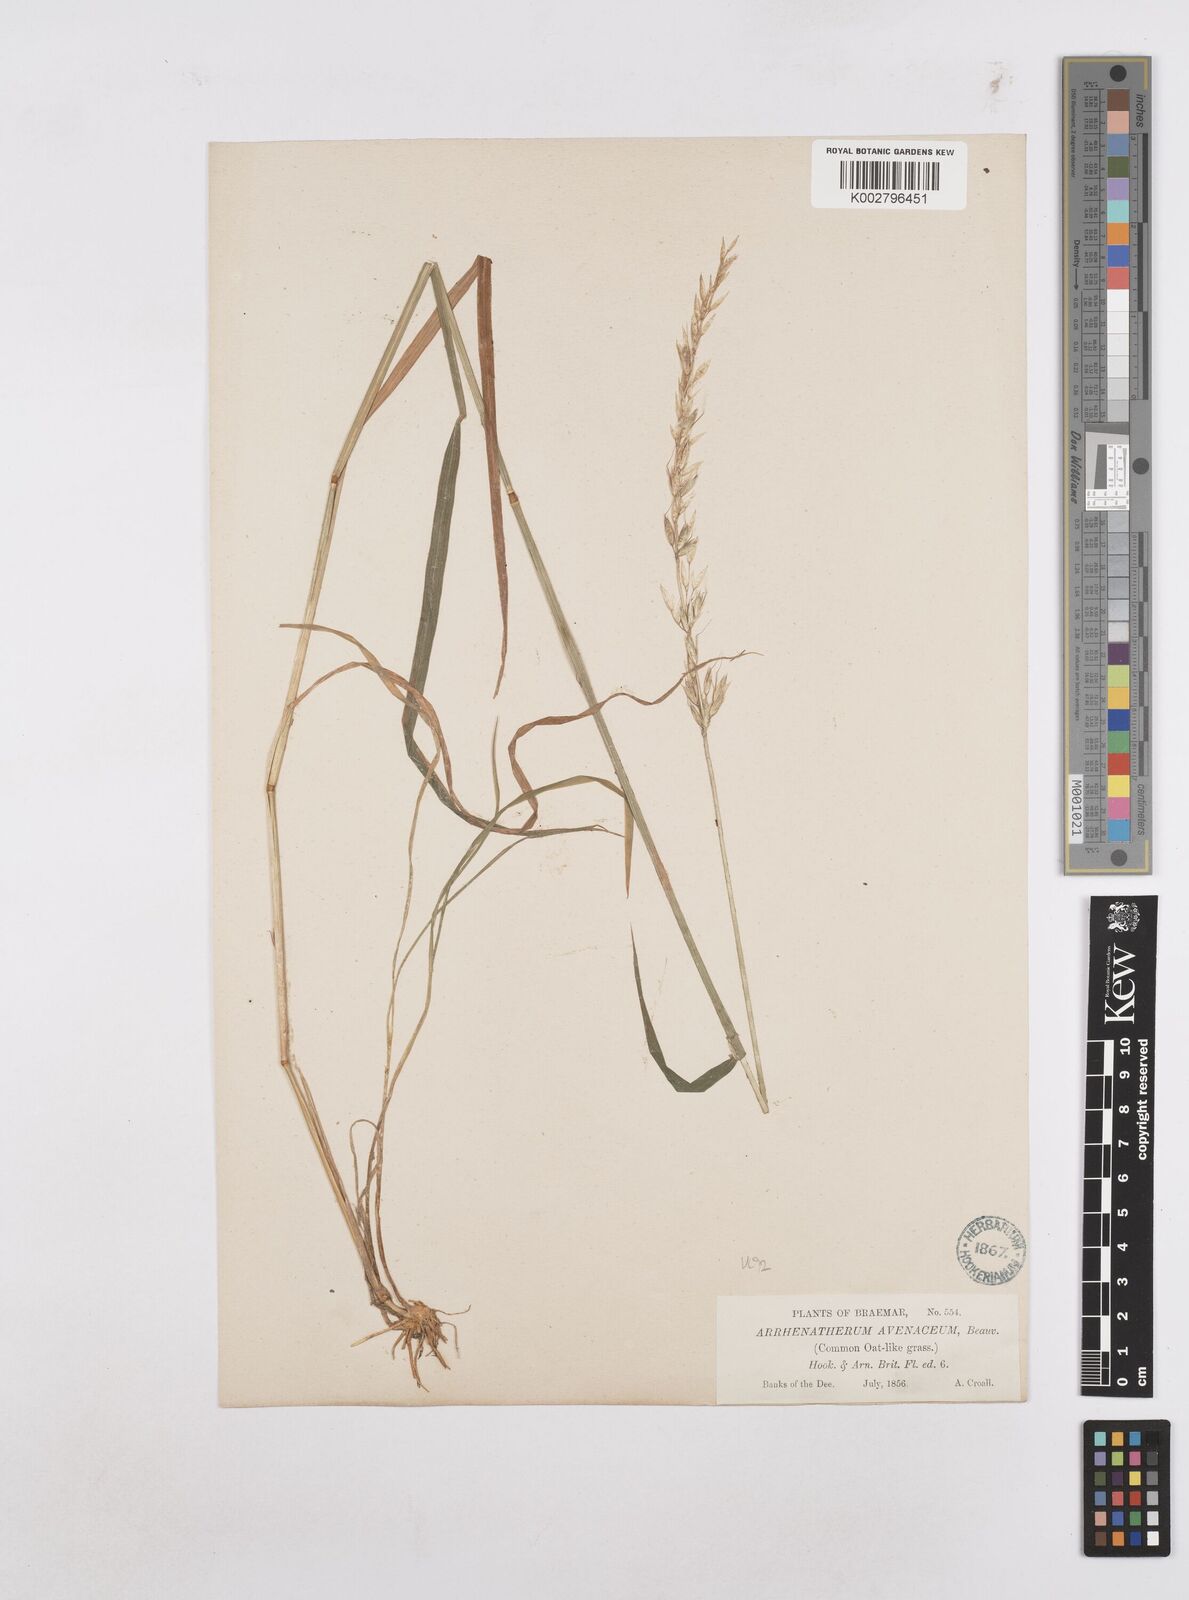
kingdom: Plantae
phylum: Tracheophyta
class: Liliopsida
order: Poales
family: Poaceae
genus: Arrhenatherum
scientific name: Arrhenatherum elatius
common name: Tall oatgrass
